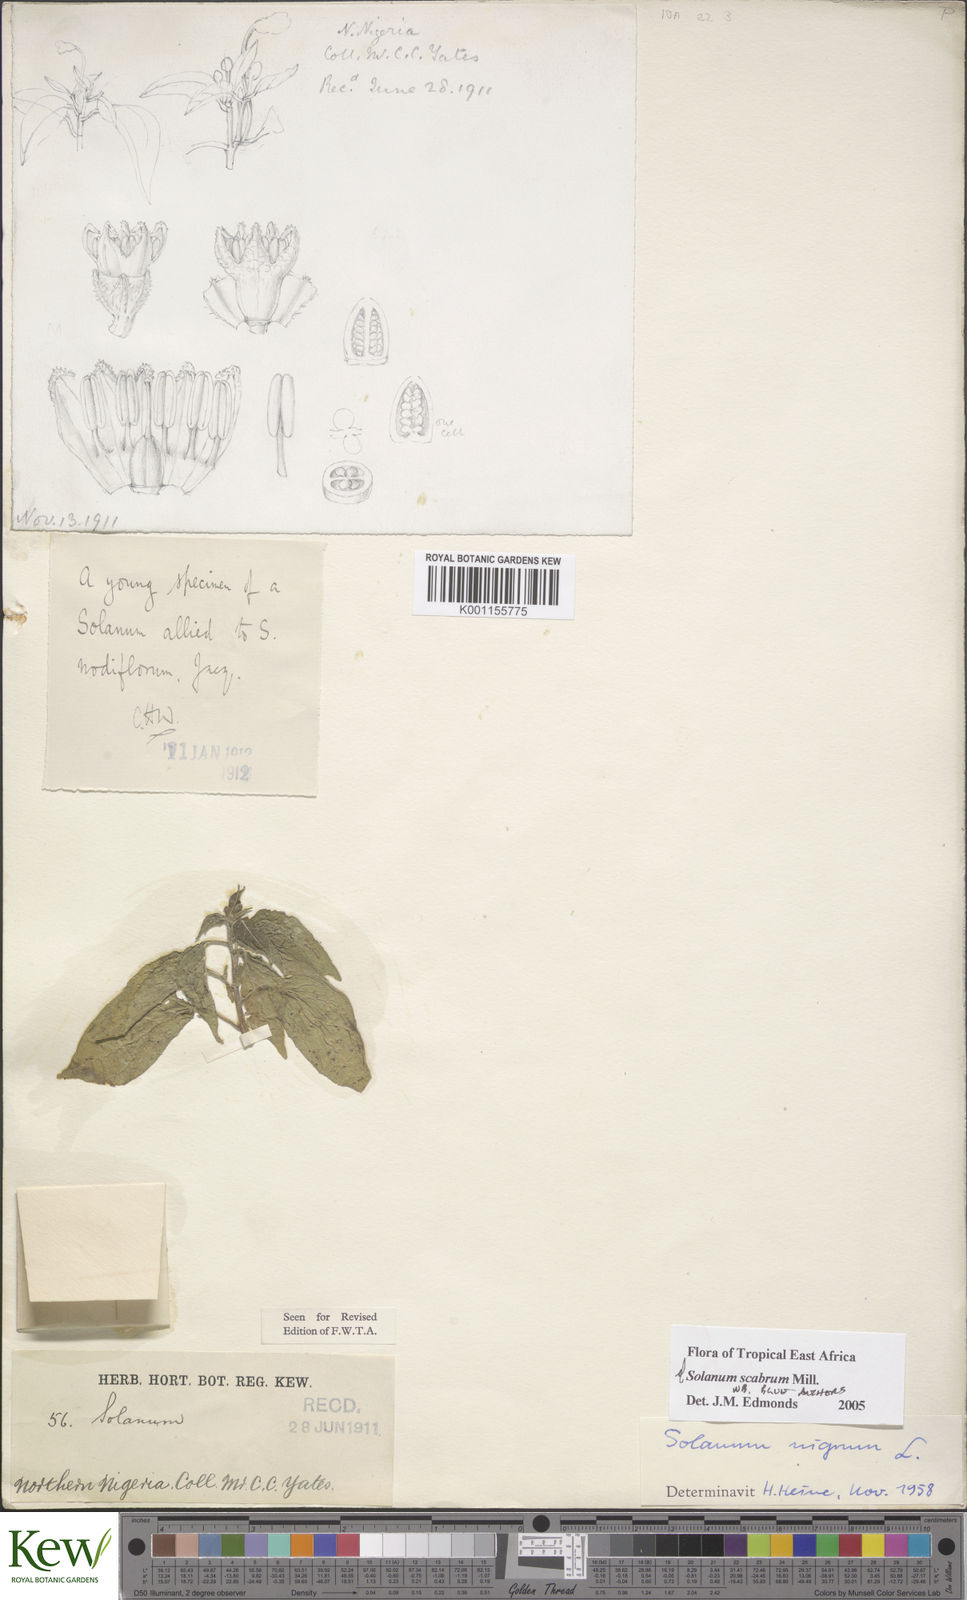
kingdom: Plantae
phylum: Tracheophyta
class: Magnoliopsida
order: Solanales
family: Solanaceae
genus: Solanum
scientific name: Solanum scabrum
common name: Garden-huckleberry
